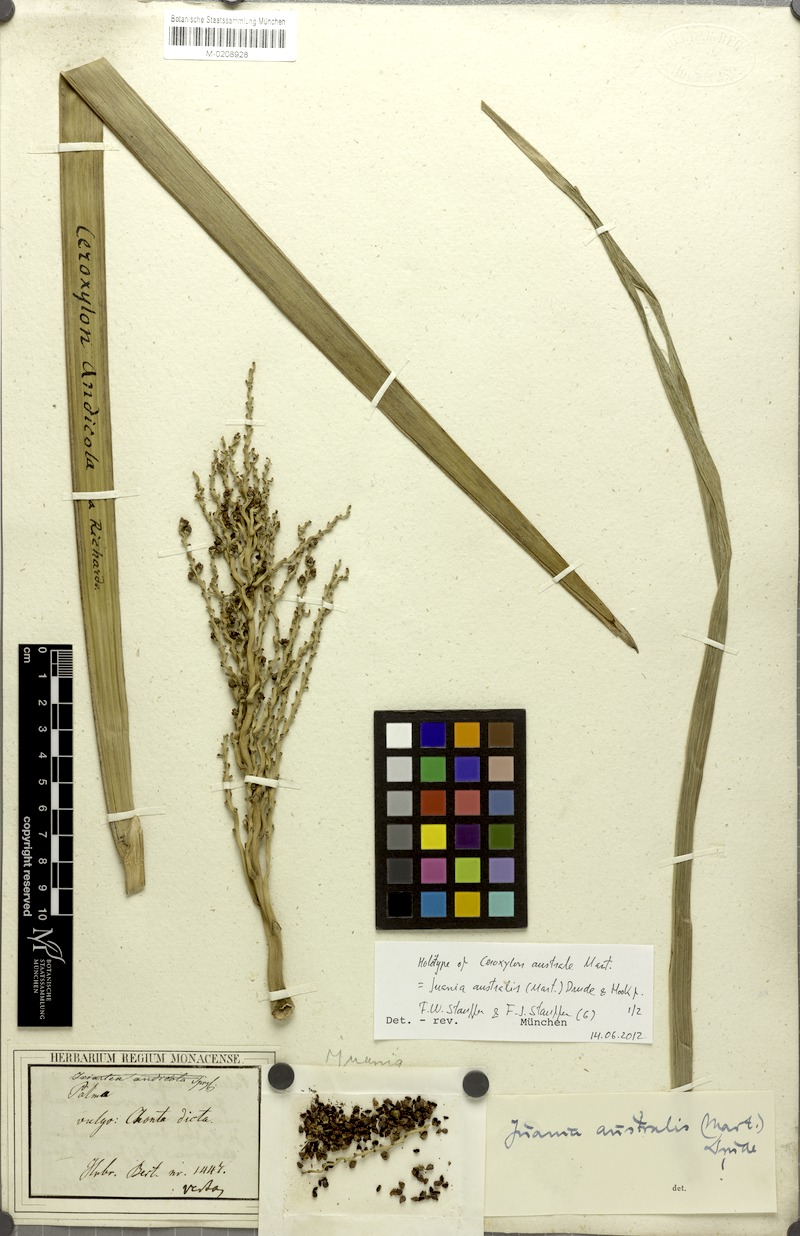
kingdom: Plantae
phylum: Tracheophyta
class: Liliopsida
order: Arecales
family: Arecaceae
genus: Juania
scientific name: Juania australis
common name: Chonta palm
